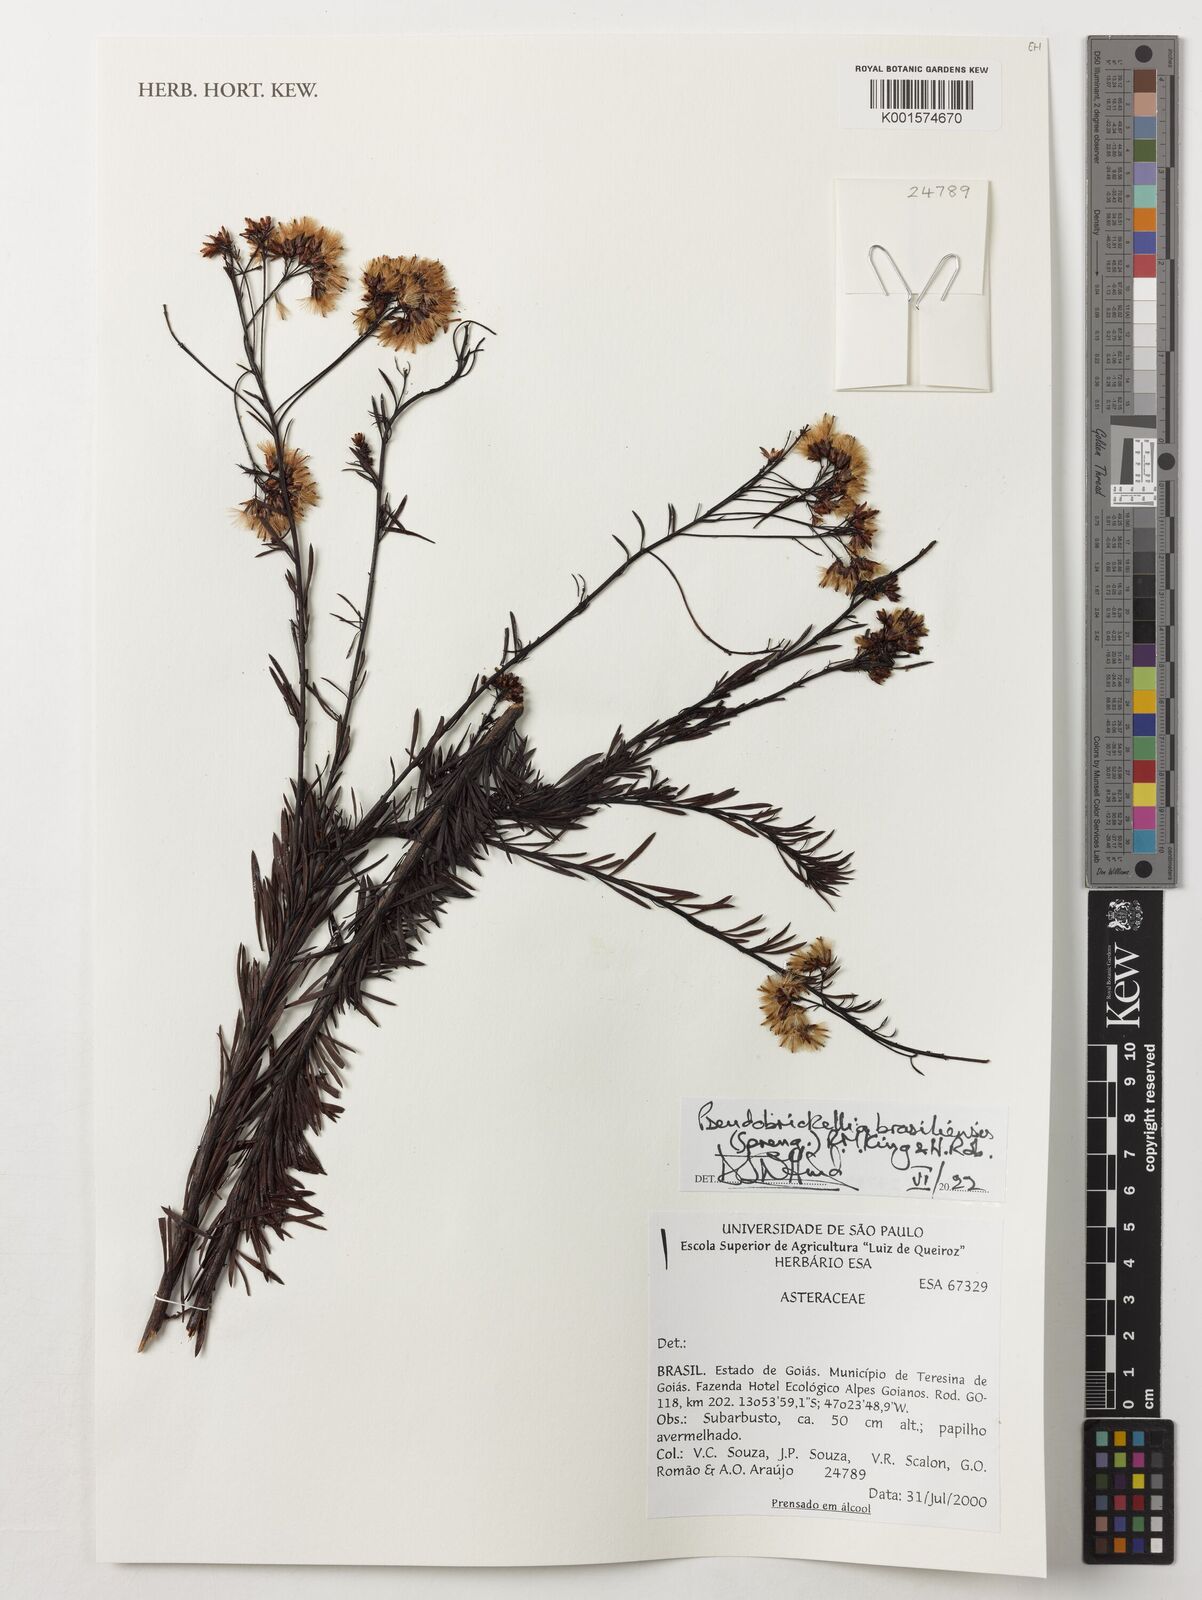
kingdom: Plantae
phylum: Tracheophyta
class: Magnoliopsida
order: Asterales
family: Asteraceae
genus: Pseudobrickellia
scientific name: Pseudobrickellia brasiliensis
